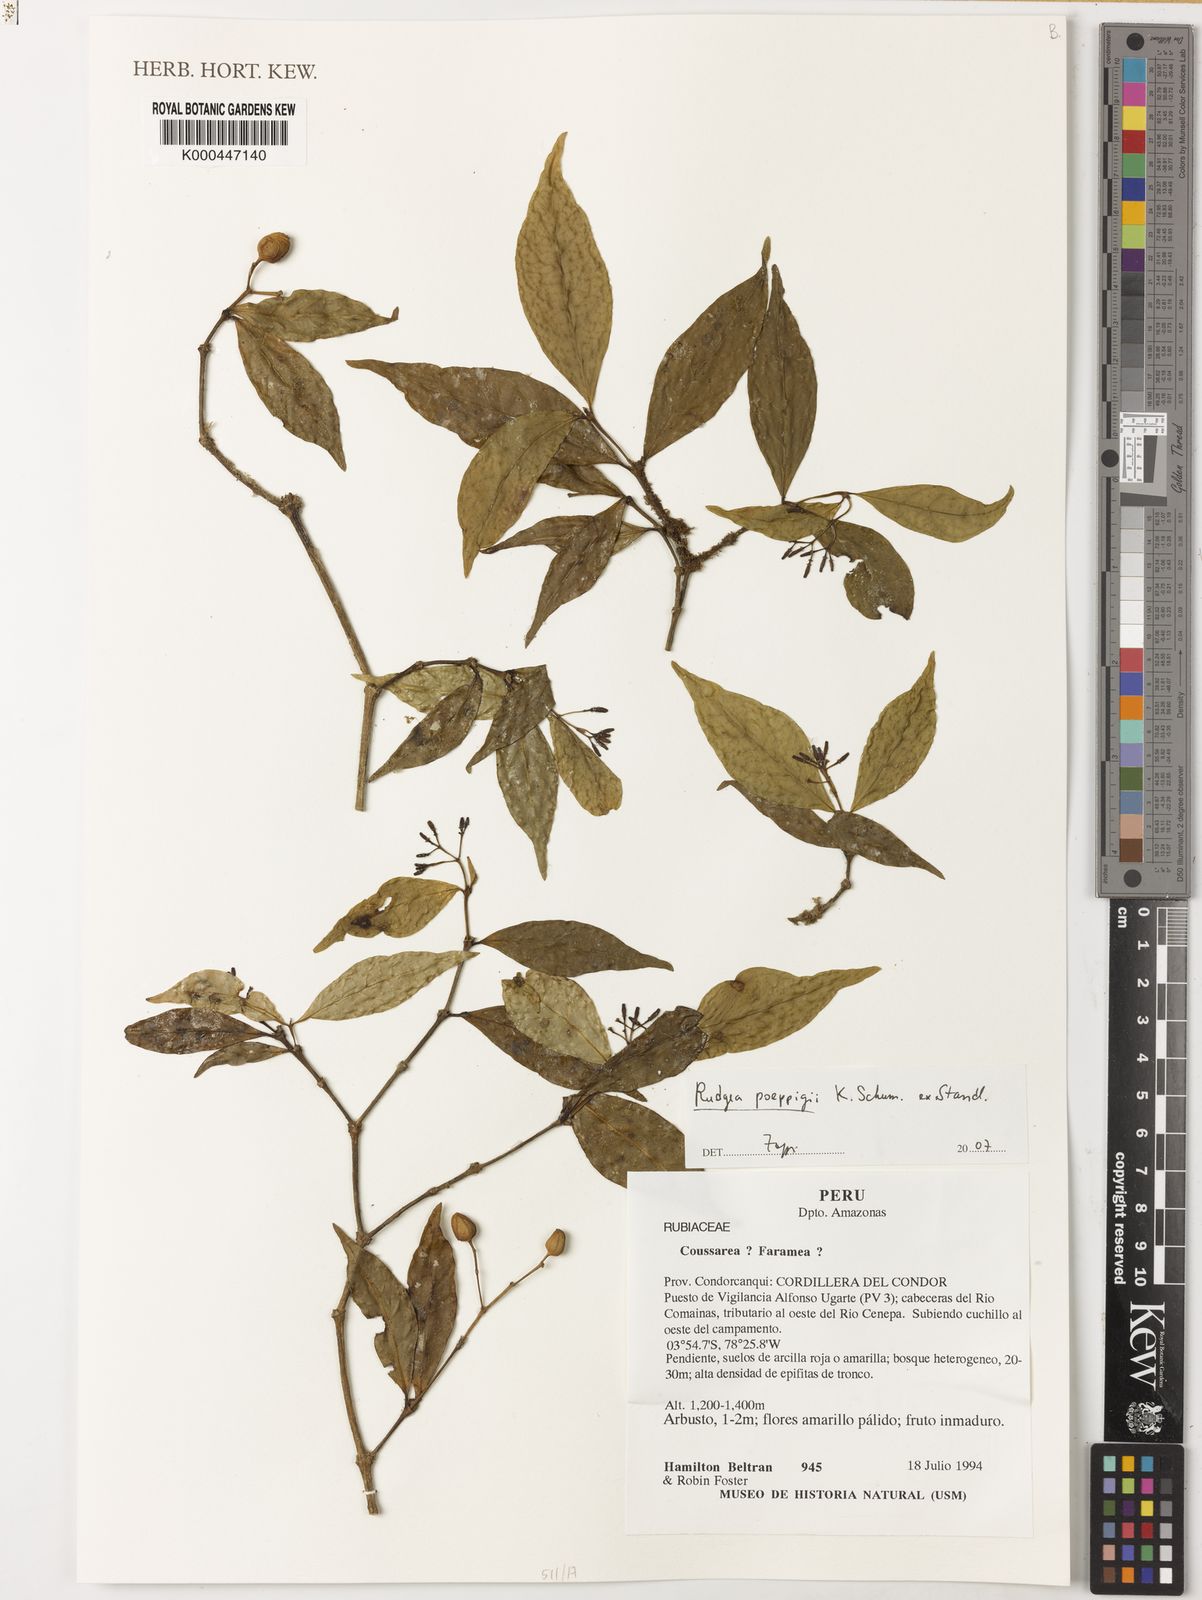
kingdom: Plantae
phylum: Tracheophyta
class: Magnoliopsida
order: Gentianales
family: Rubiaceae
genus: Rudgea
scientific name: Rudgea poeppigii
